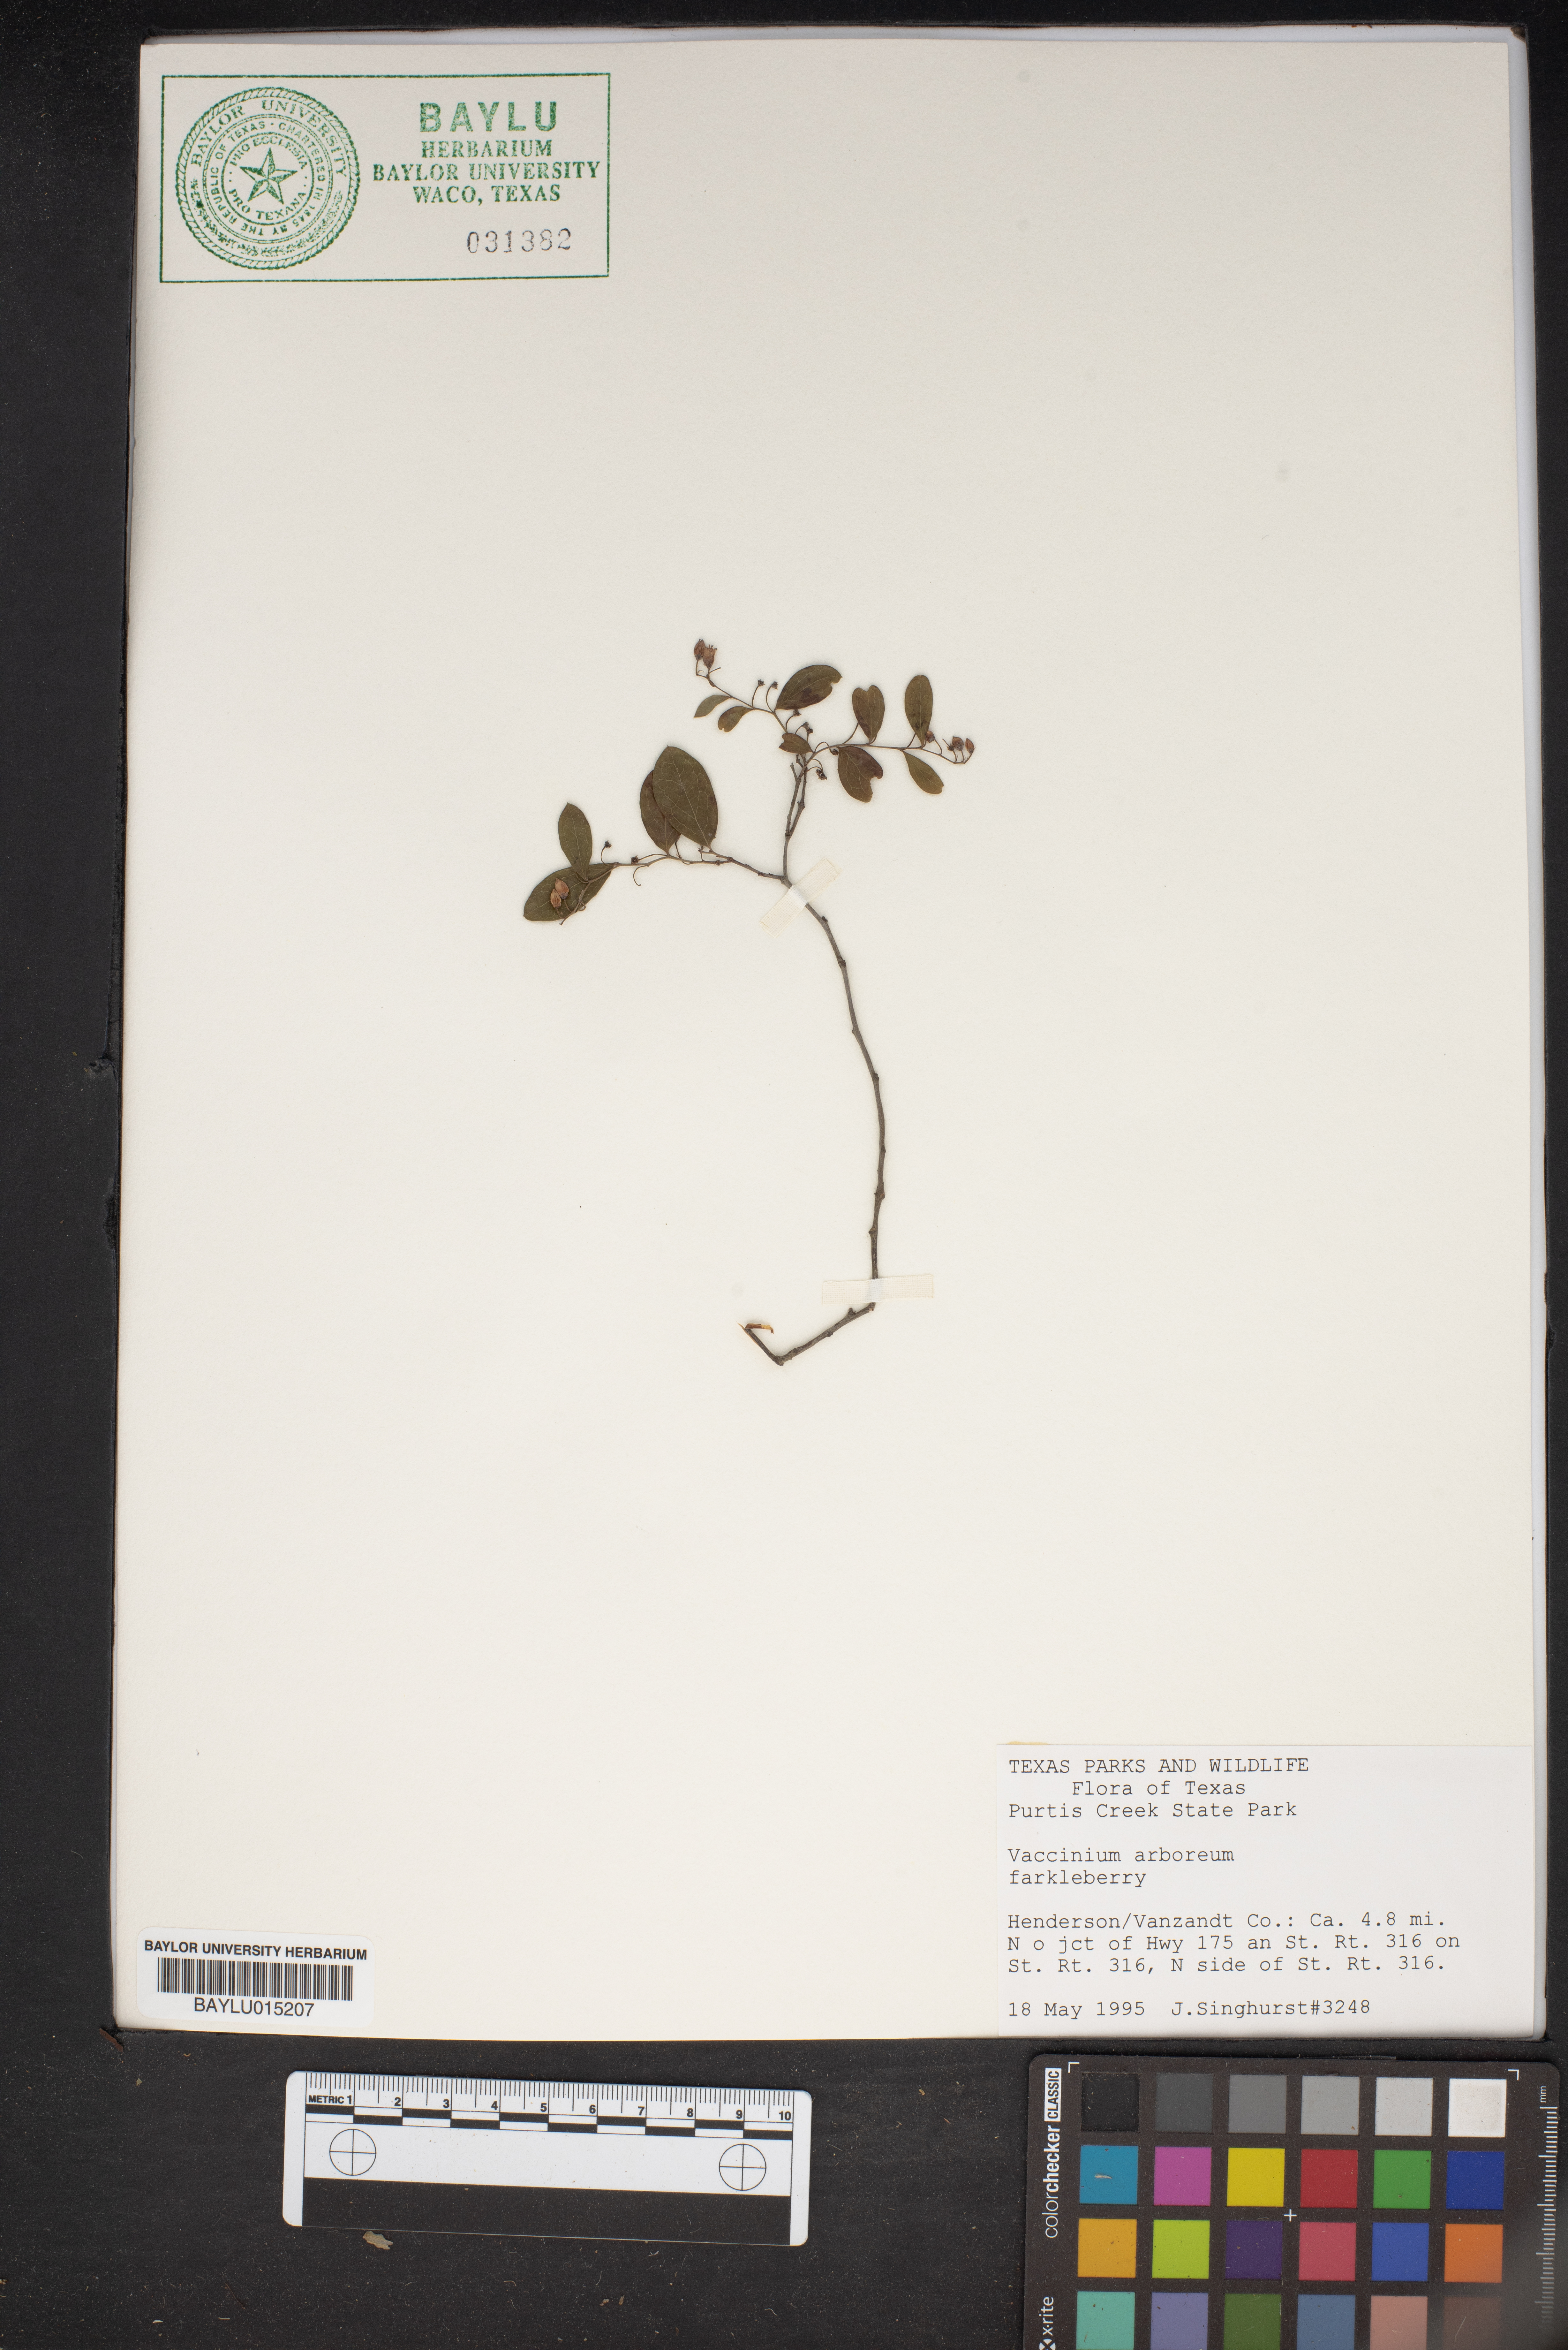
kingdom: Plantae
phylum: Tracheophyta
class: Magnoliopsida
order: Ericales
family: Ericaceae
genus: Vaccinium
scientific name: Vaccinium arboreum
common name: Farkleberry
